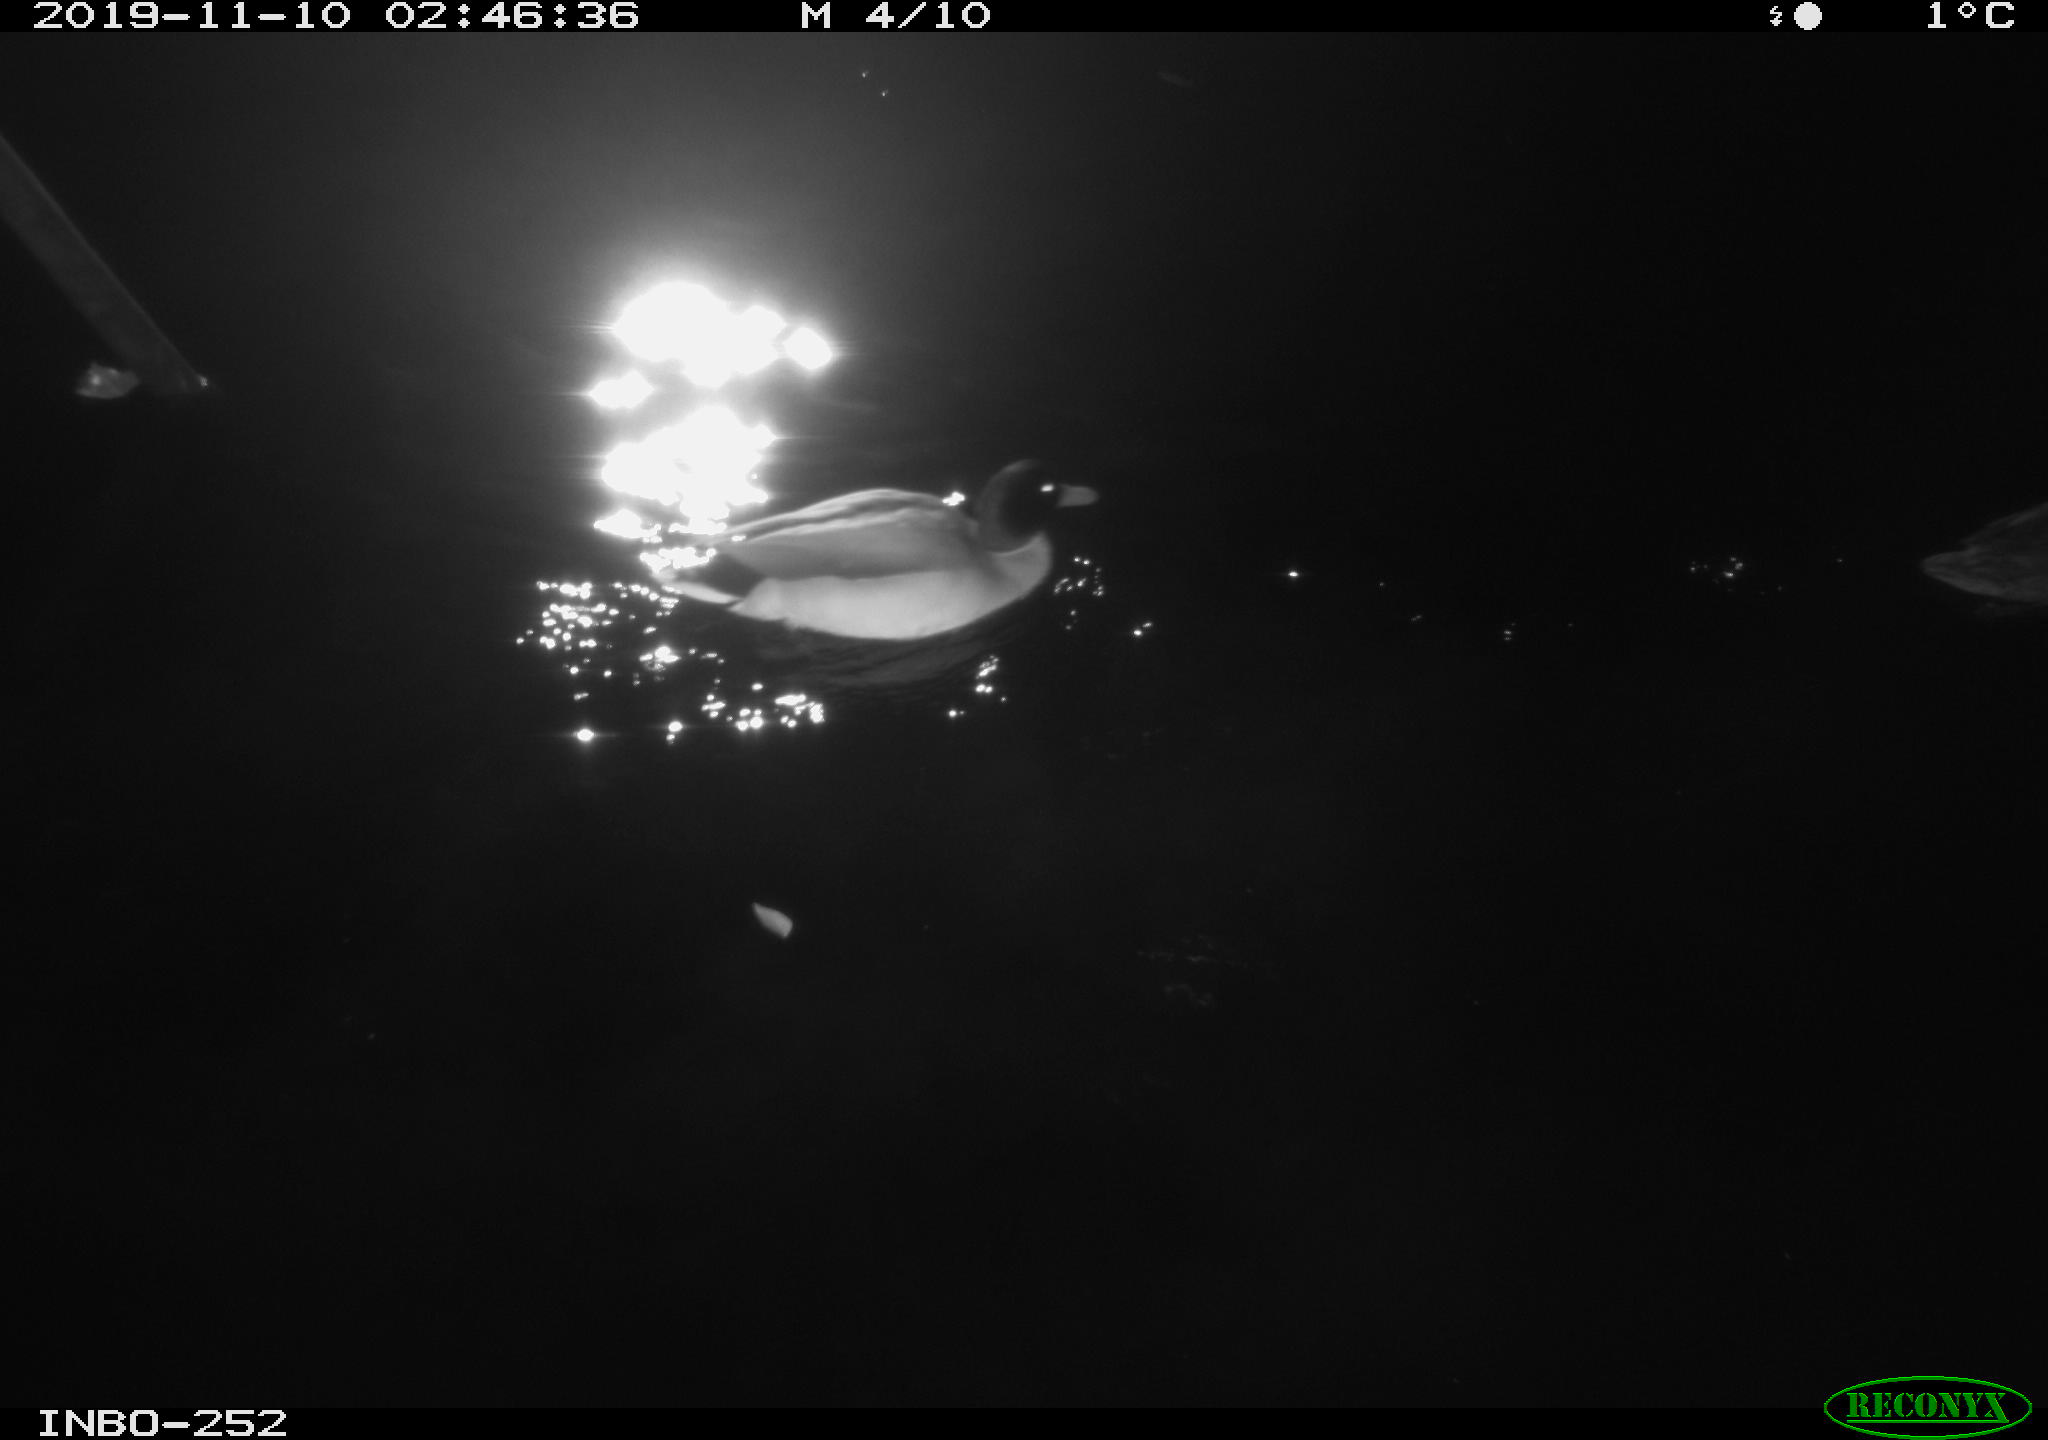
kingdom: Animalia
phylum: Chordata
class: Aves
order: Anseriformes
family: Anatidae
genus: Anas
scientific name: Anas platyrhynchos
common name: Mallard
